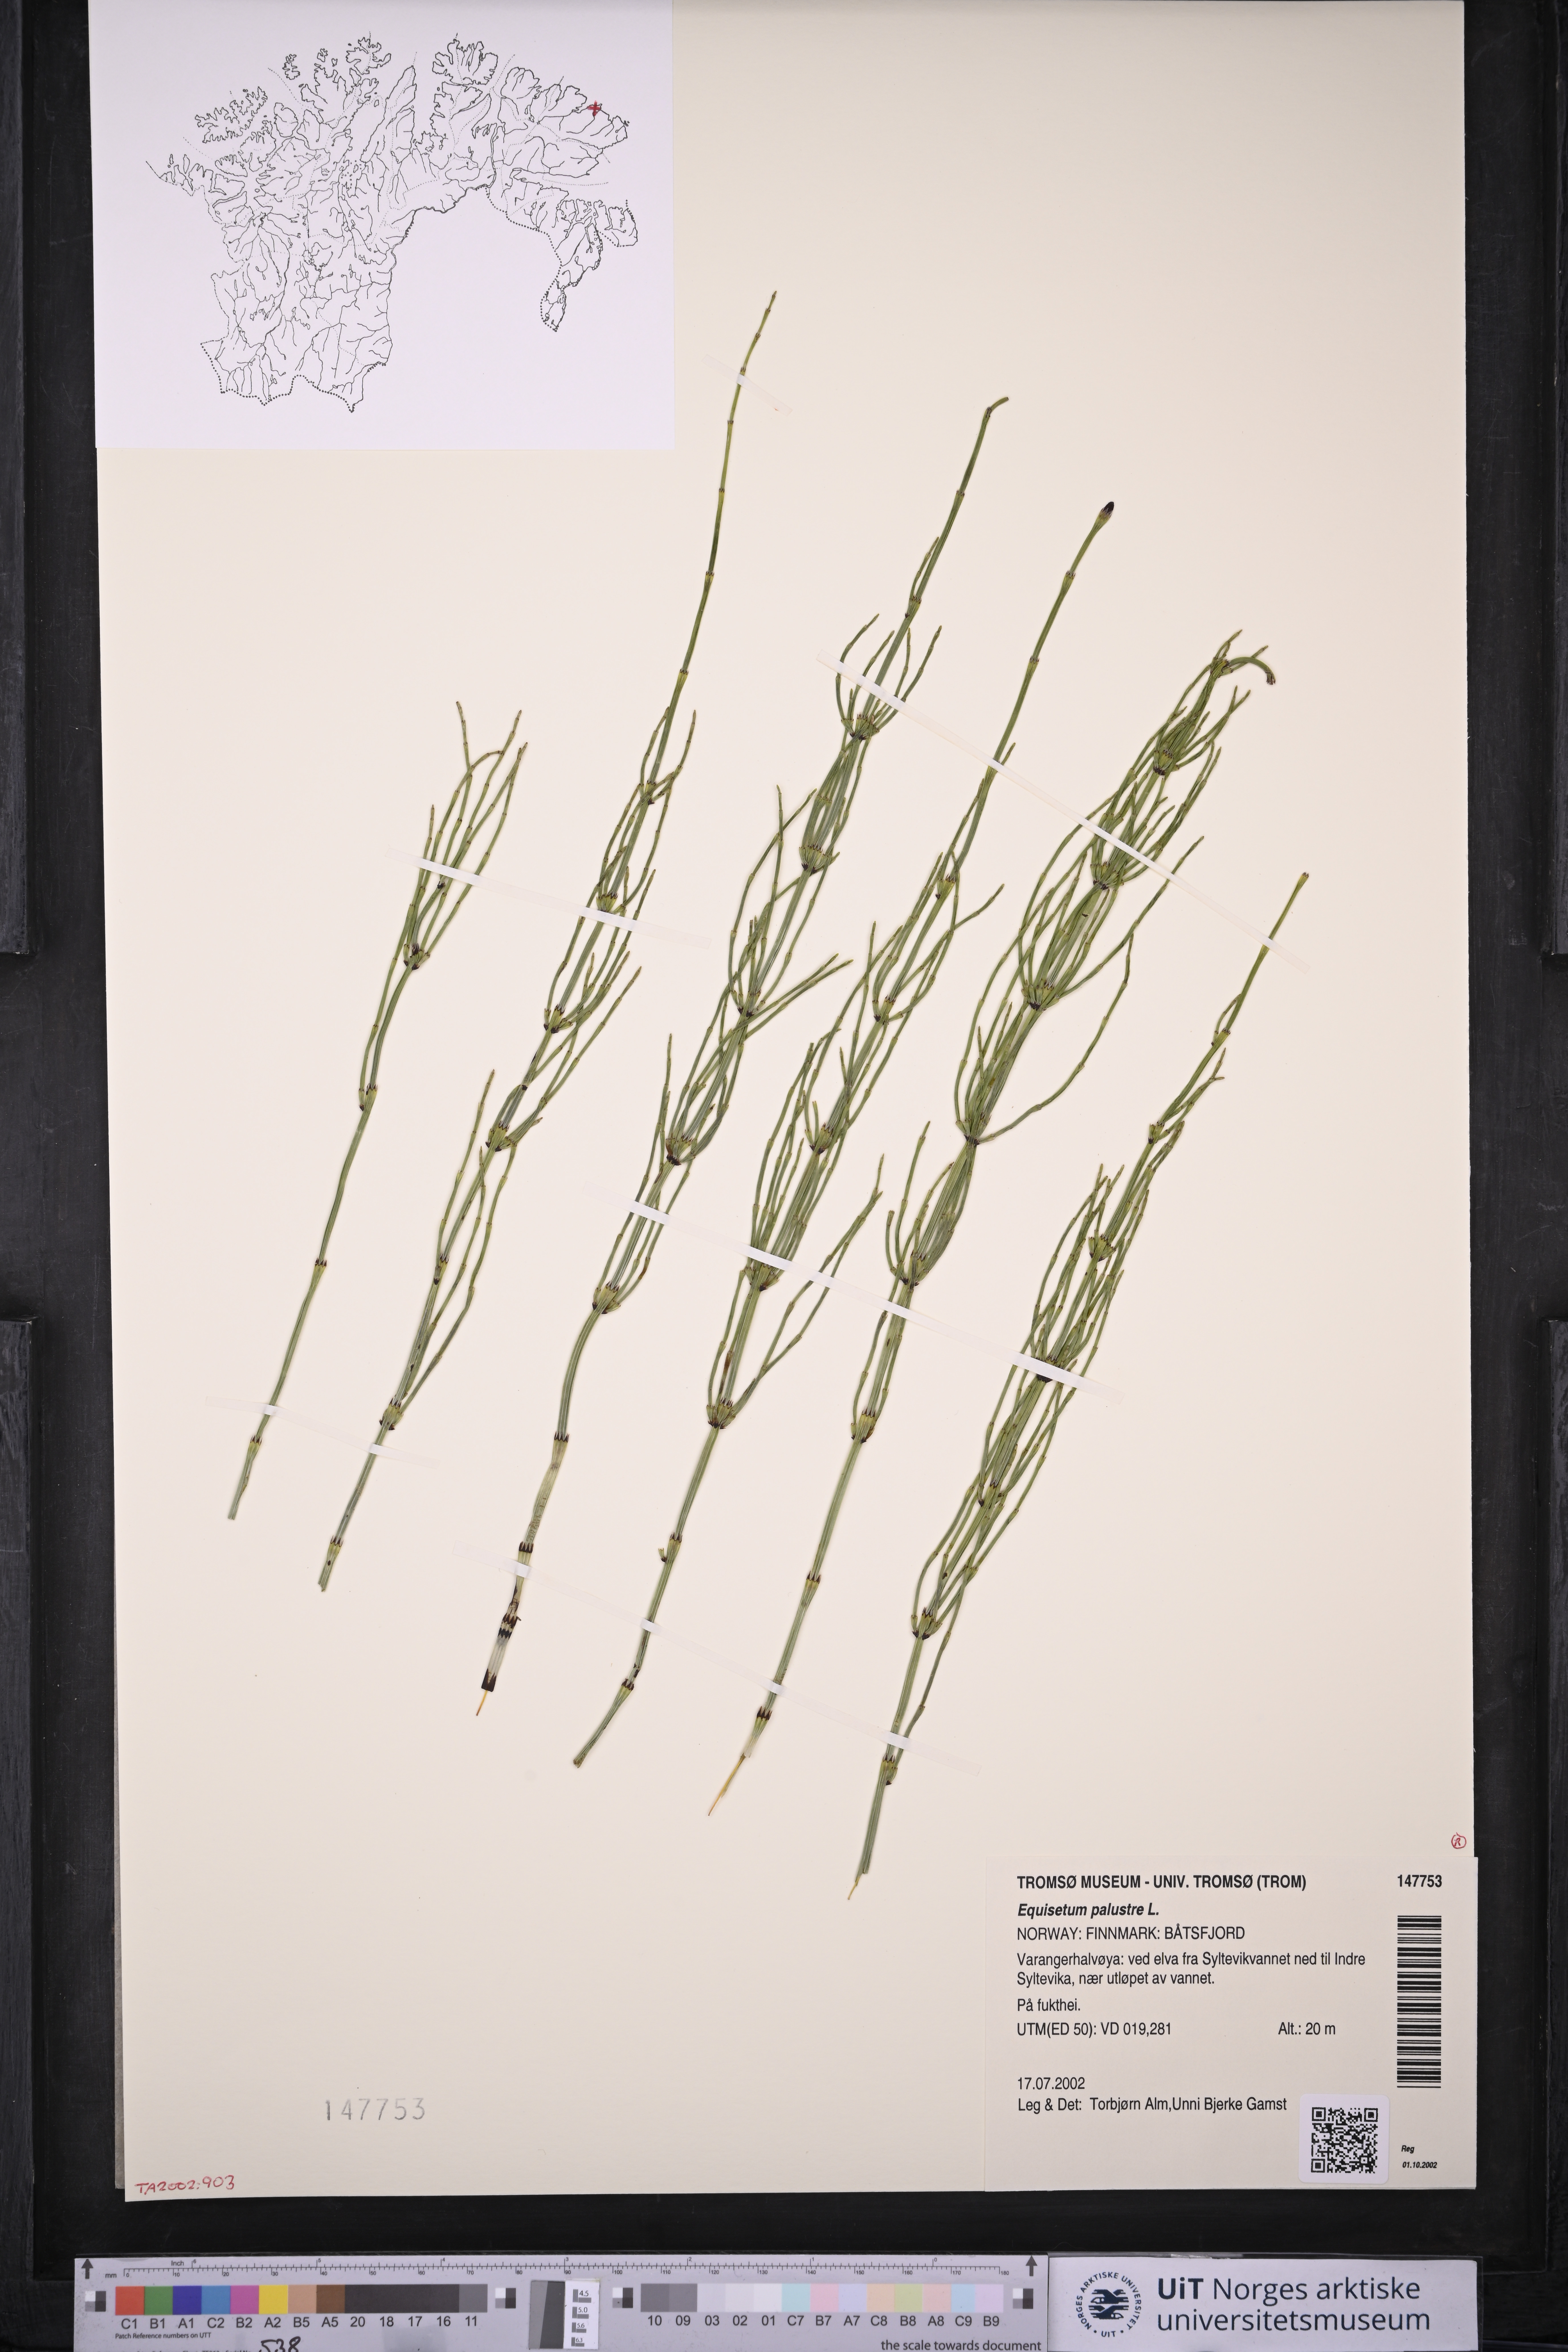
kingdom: Plantae
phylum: Tracheophyta
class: Polypodiopsida
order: Equisetales
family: Equisetaceae
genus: Equisetum
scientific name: Equisetum palustre
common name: Marsh horsetail
